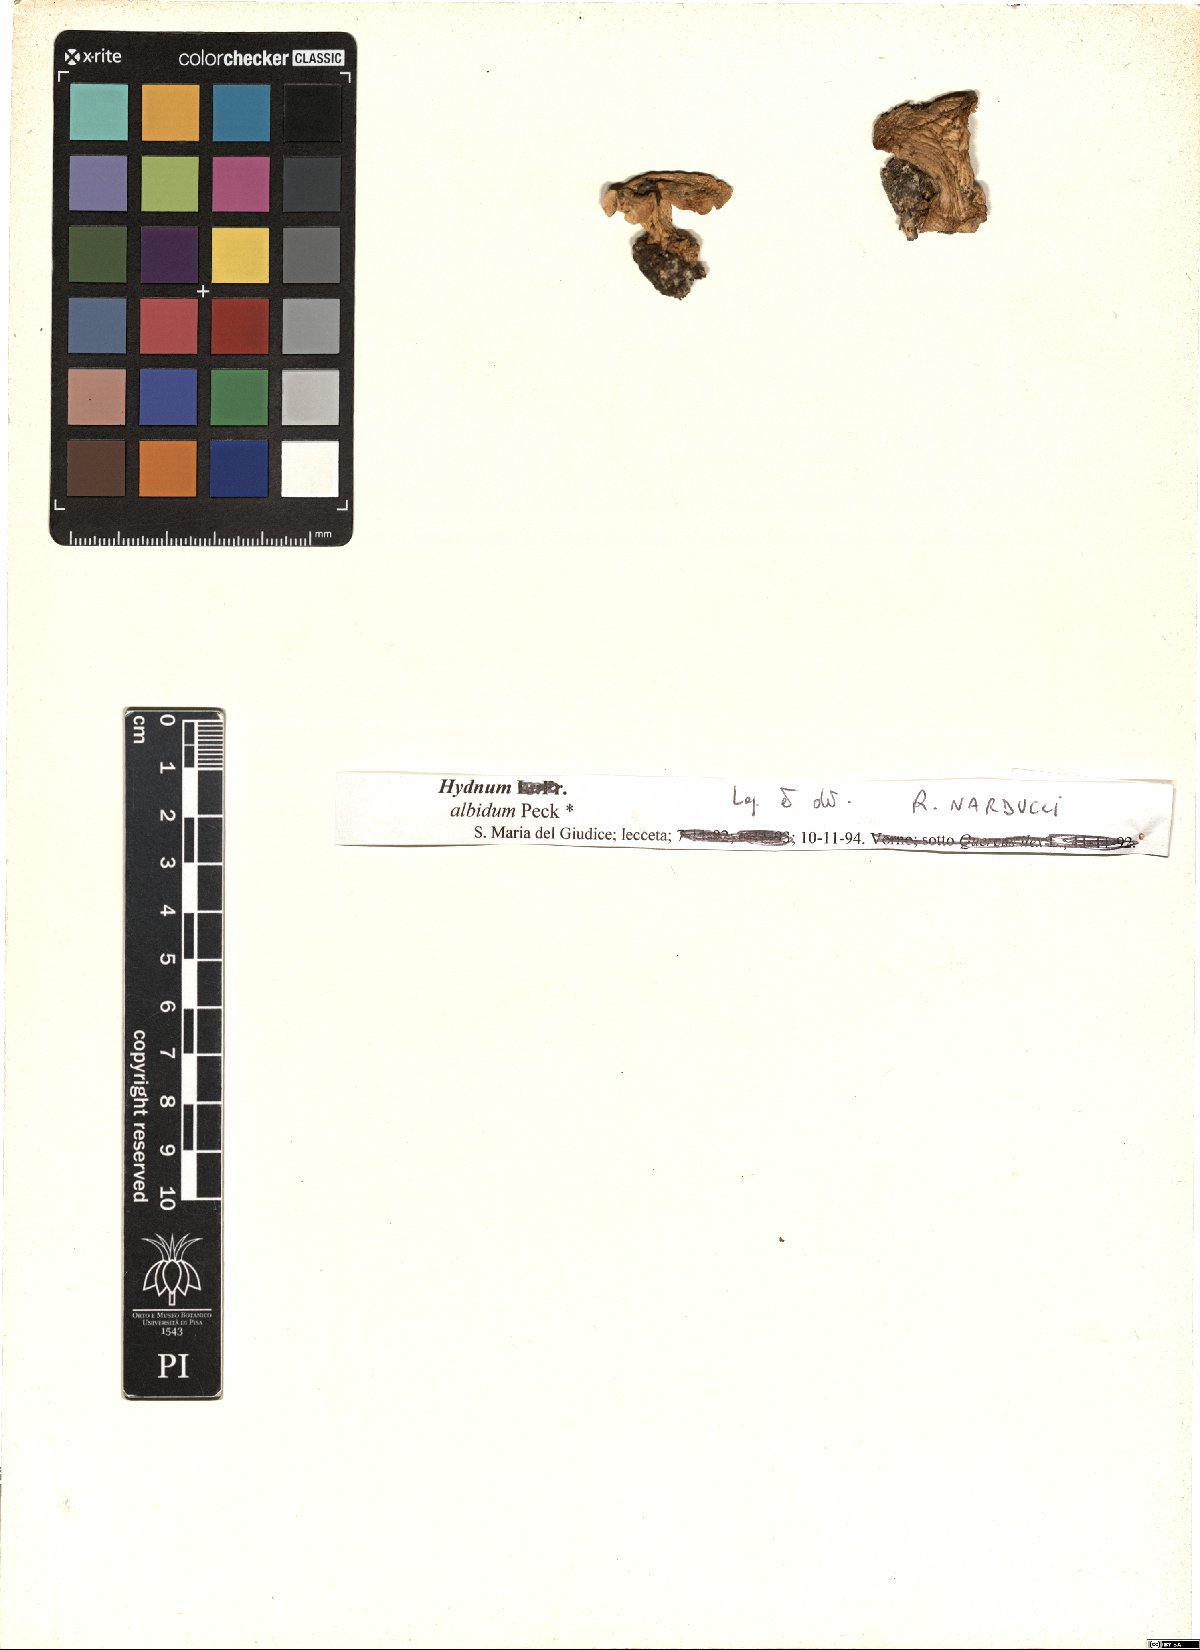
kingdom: Fungi
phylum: Basidiomycota
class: Agaricomycetes
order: Cantharellales
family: Hydnaceae
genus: Hydnum
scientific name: Hydnum albidum
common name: White hedgehog
